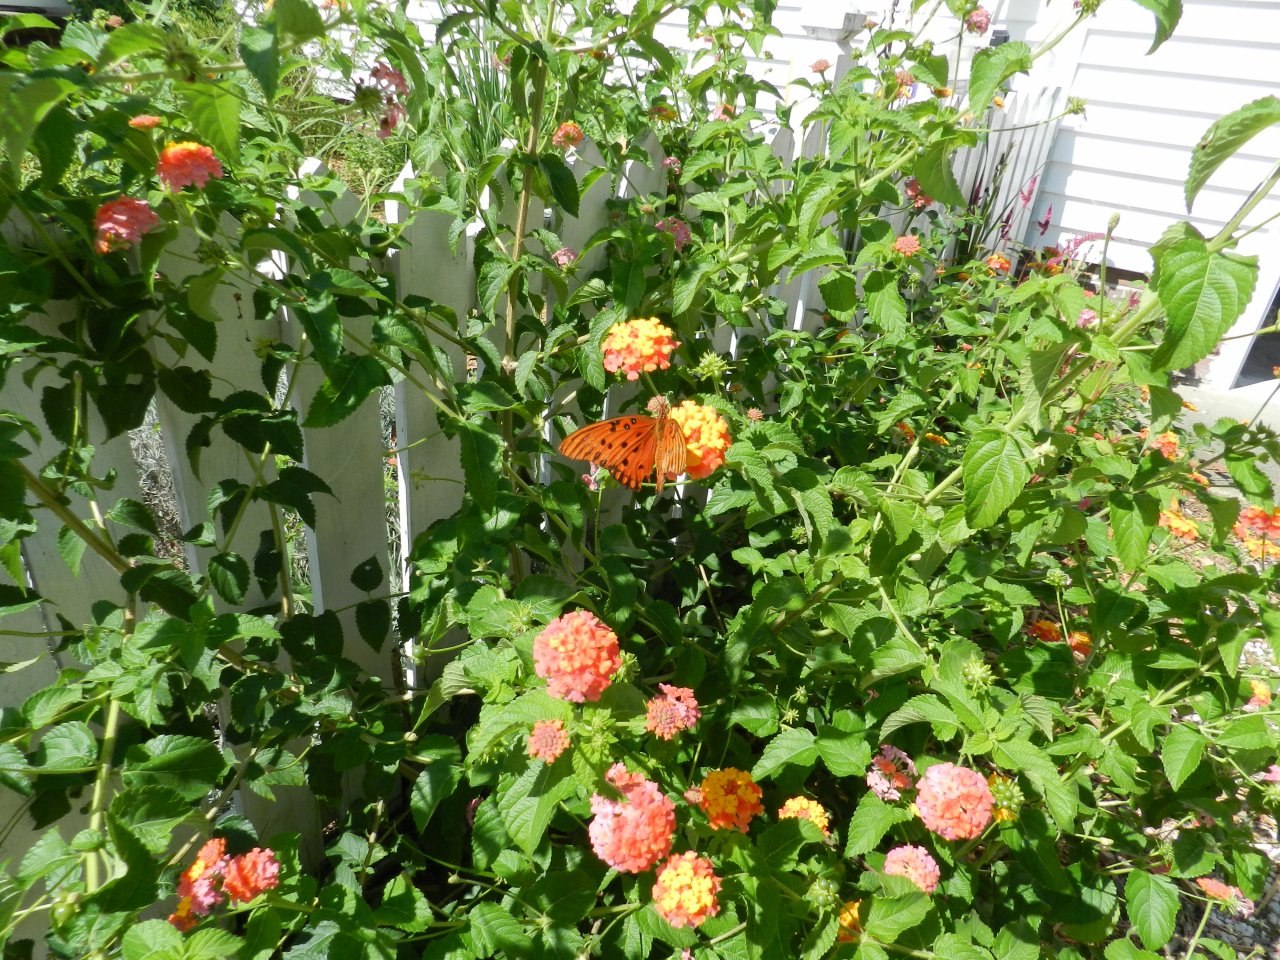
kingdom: Animalia
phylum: Arthropoda
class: Insecta
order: Lepidoptera
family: Nymphalidae
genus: Dione
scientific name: Dione vanillae
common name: Gulf Fritillary
